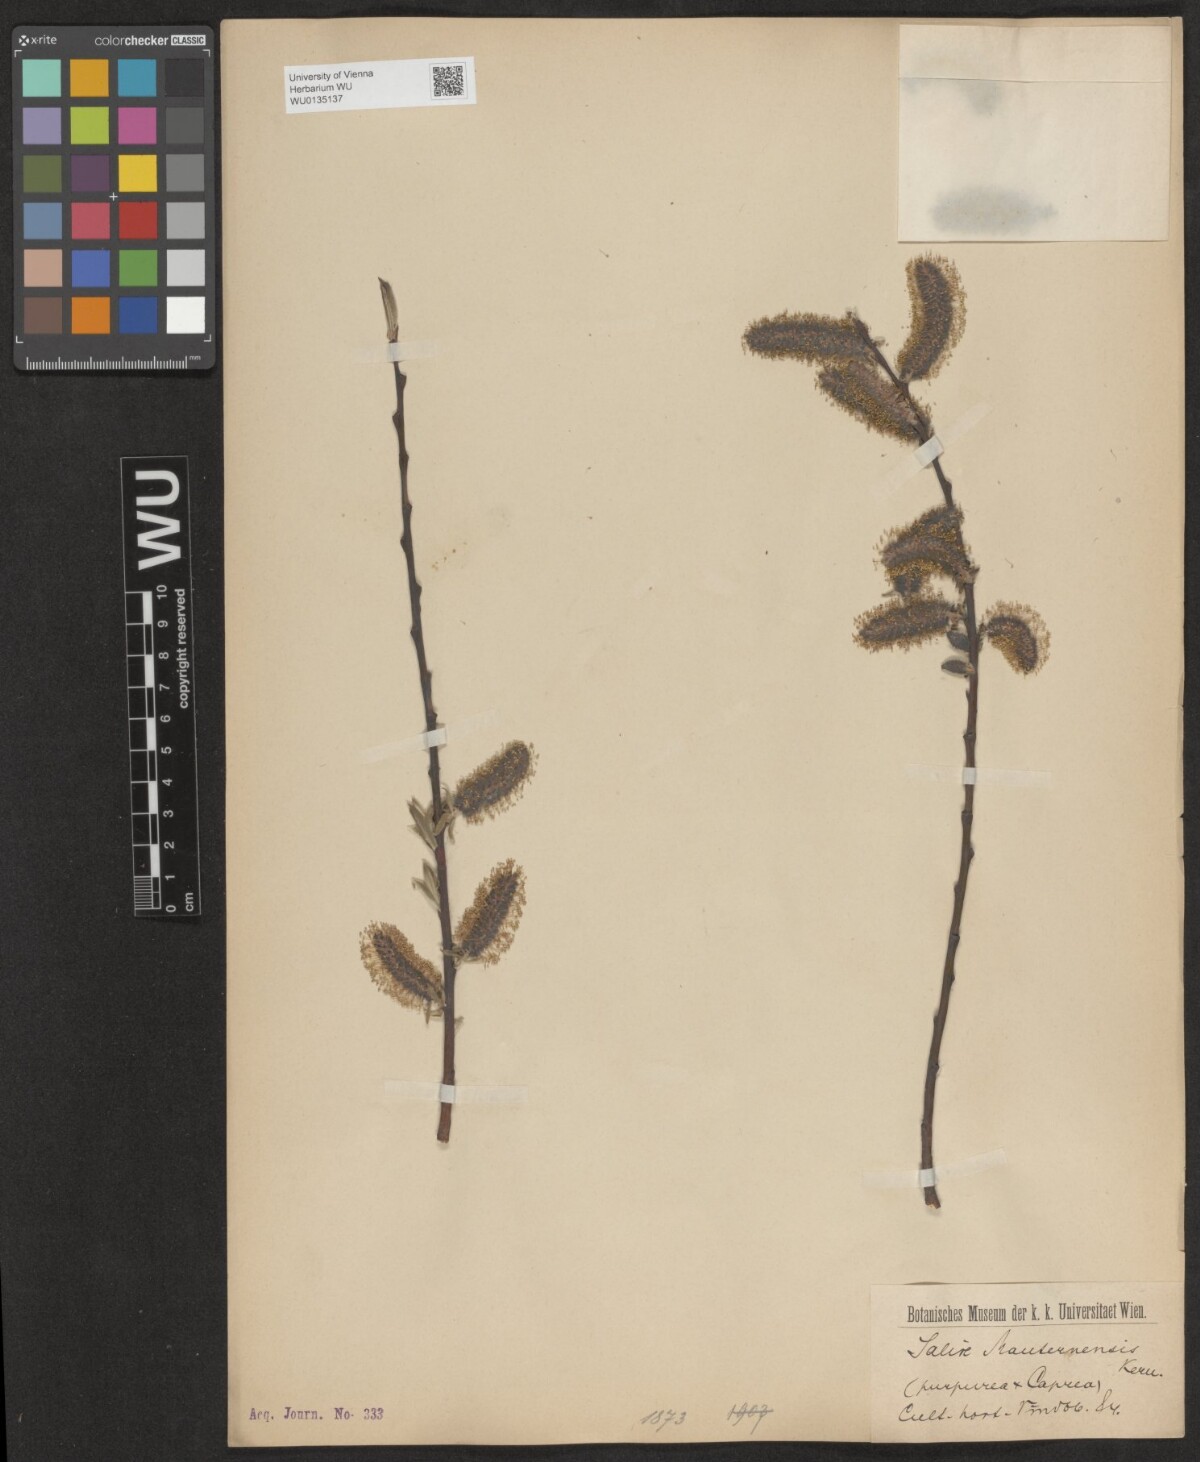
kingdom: Plantae
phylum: Tracheophyta
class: Magnoliopsida
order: Malpighiales
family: Salicaceae
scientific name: Salicaceae
